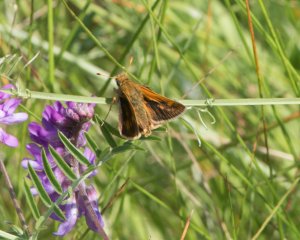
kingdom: Animalia
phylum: Arthropoda
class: Insecta
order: Lepidoptera
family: Hesperiidae
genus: Polites
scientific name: Polites coras
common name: Peck's Skipper
